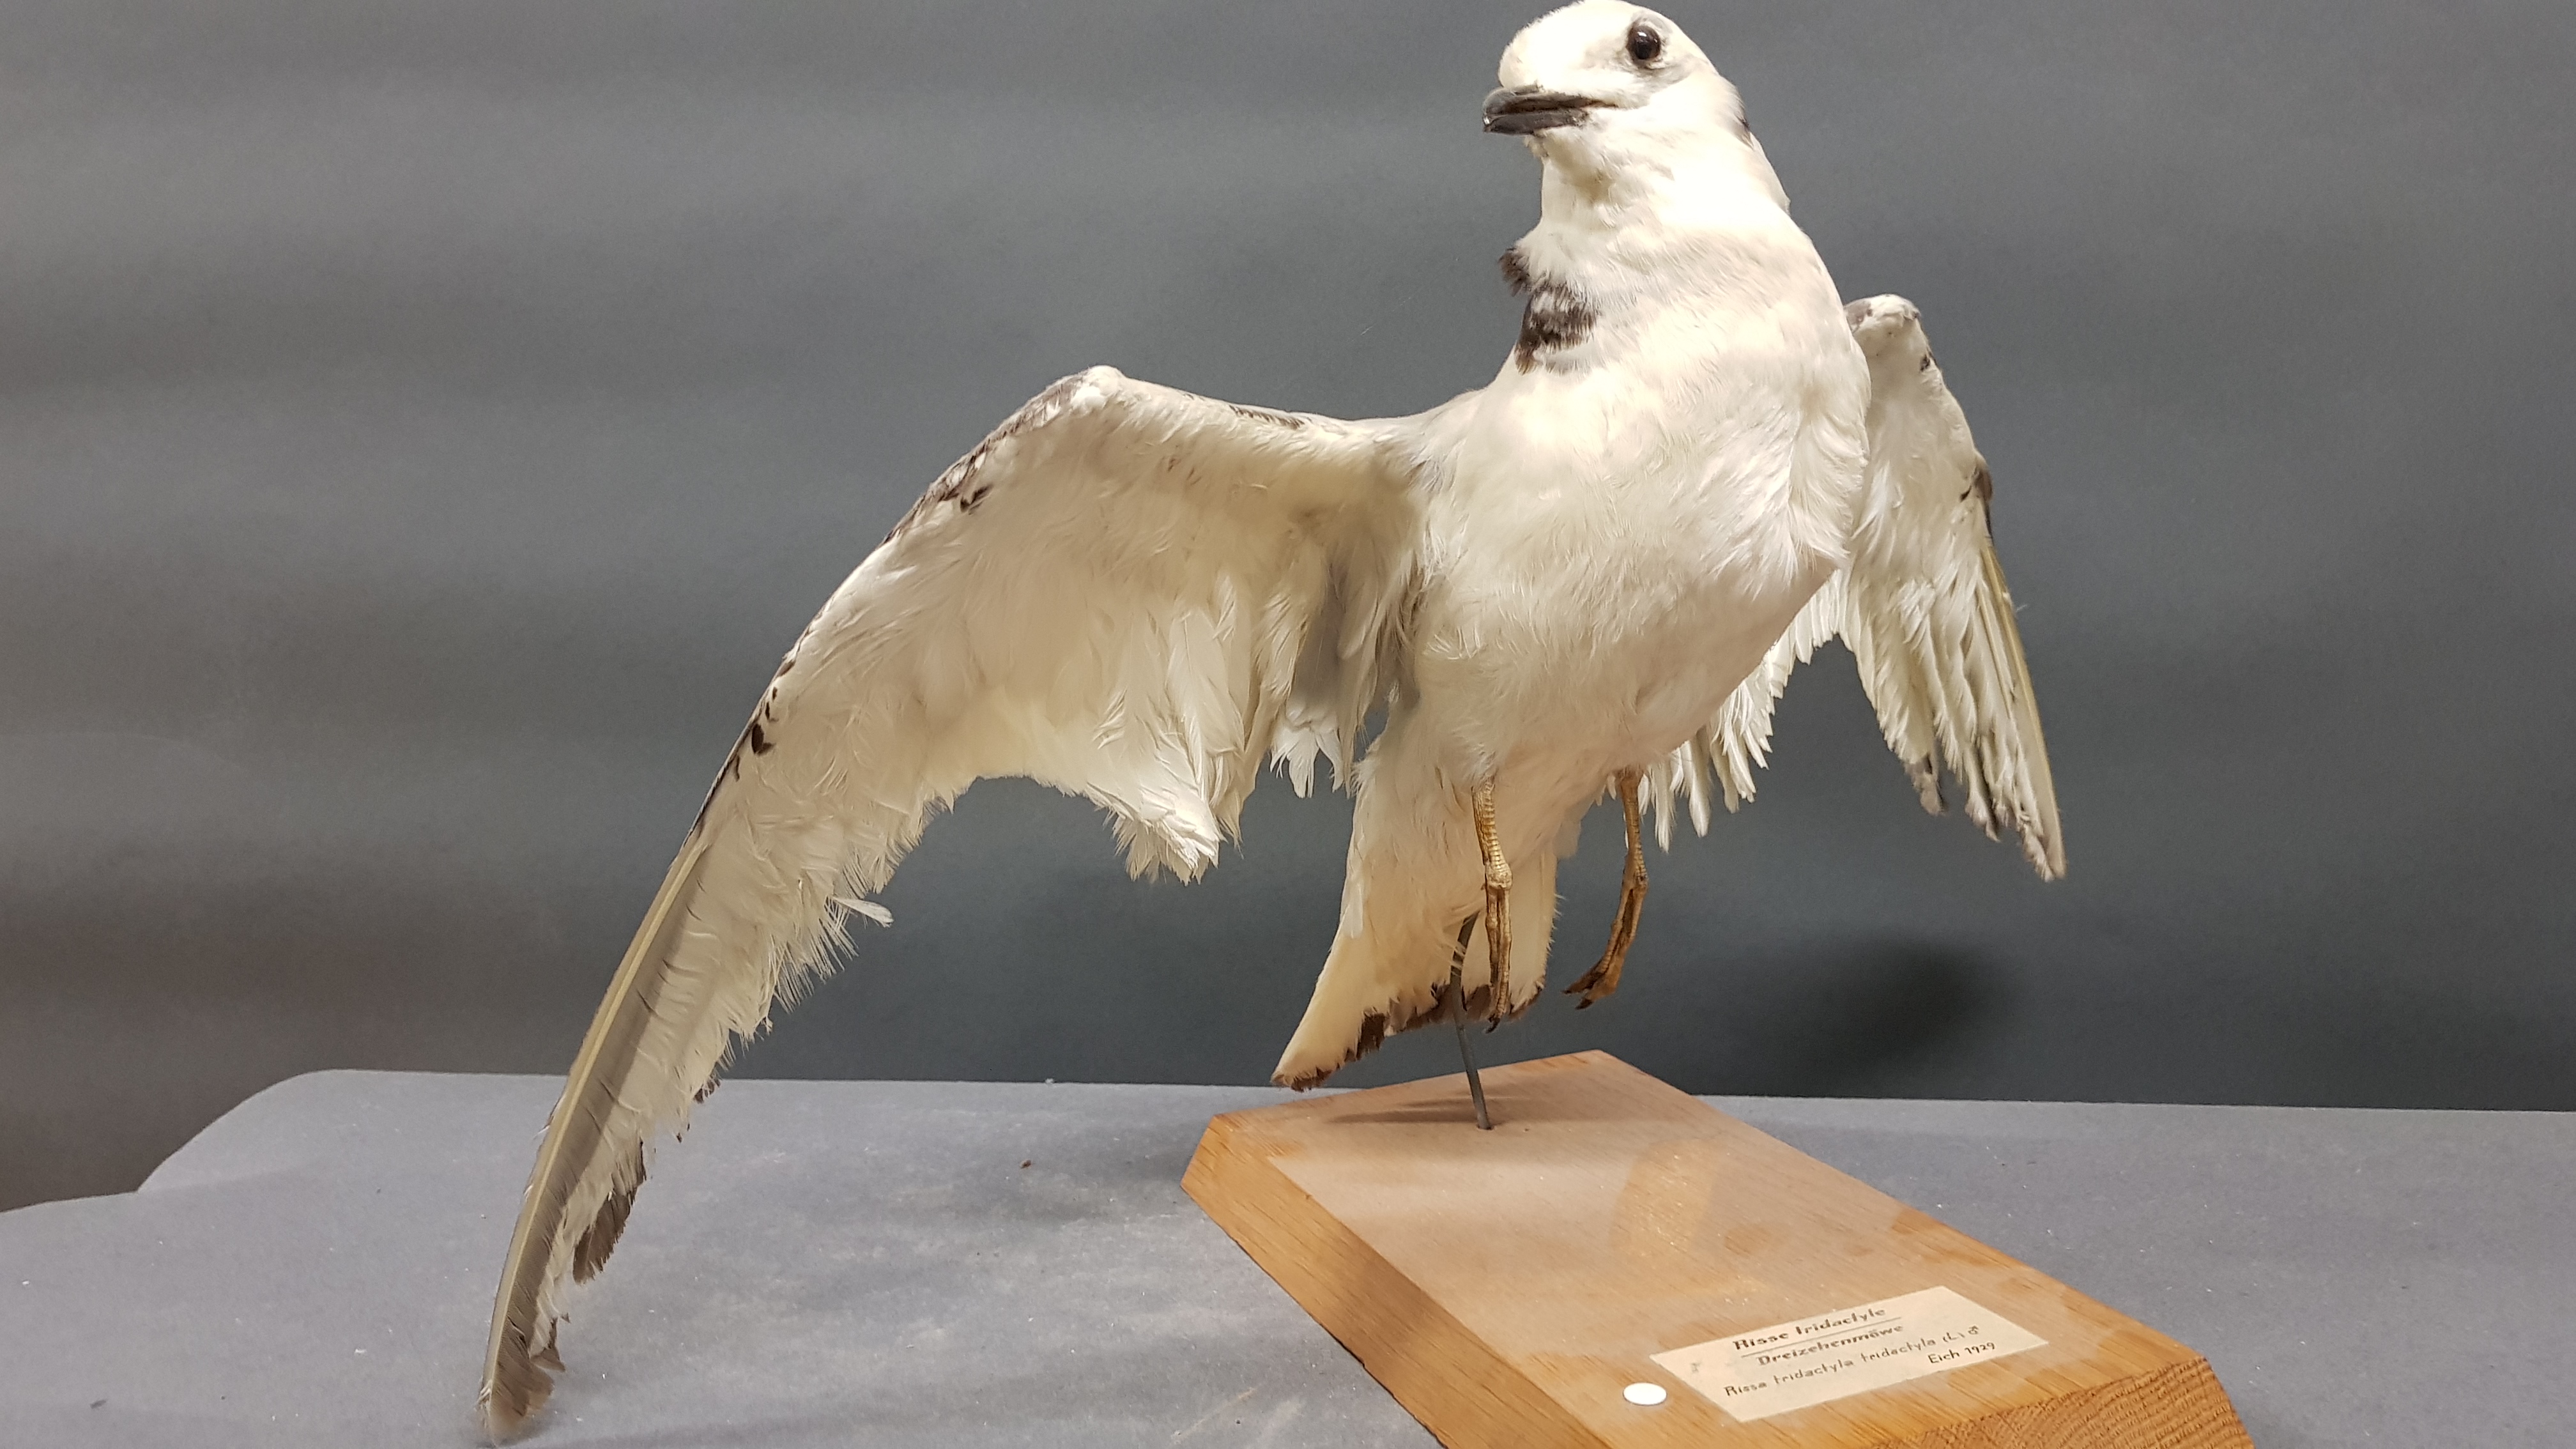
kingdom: Animalia
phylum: Chordata
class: Aves
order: Charadriiformes
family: Laridae
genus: Rissa
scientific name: Rissa tridactyla
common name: Black-legged kittiwake
